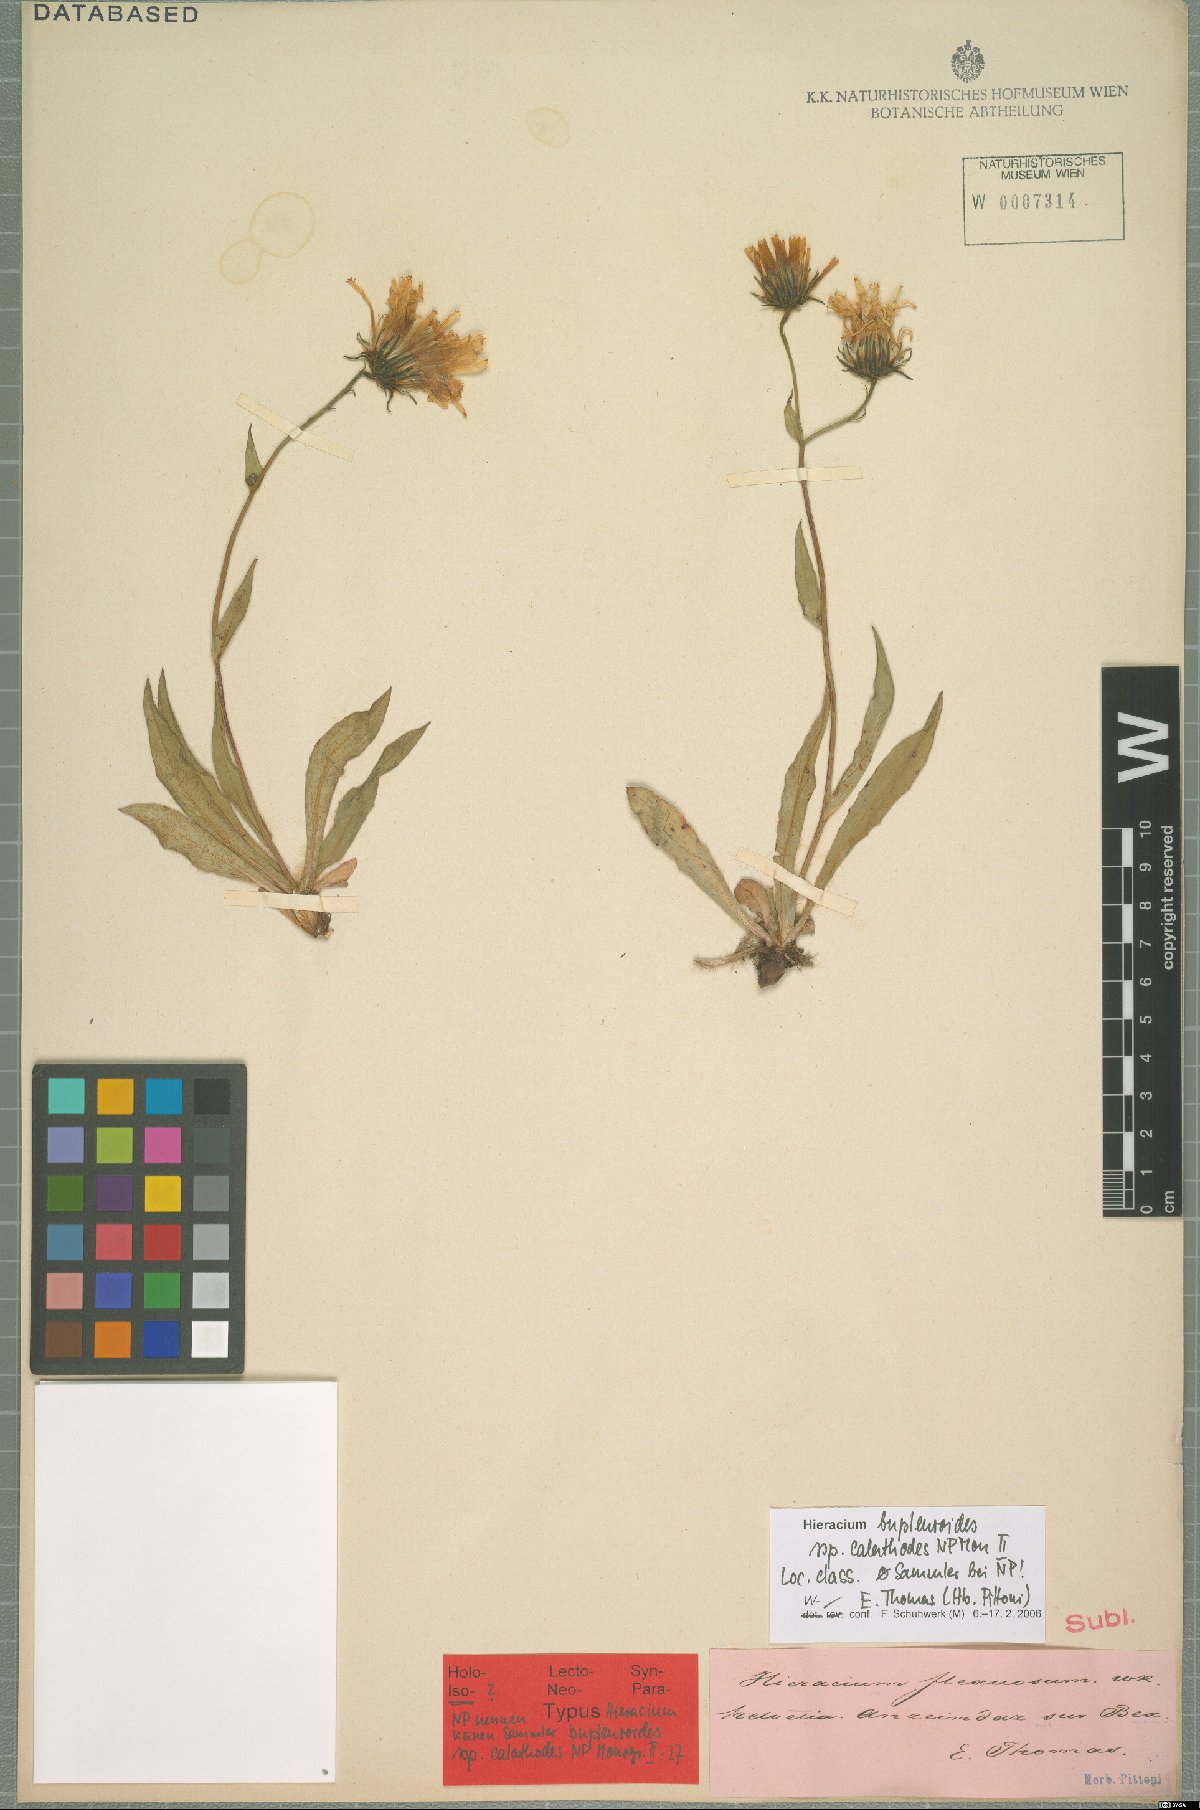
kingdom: Plantae
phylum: Tracheophyta
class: Magnoliopsida
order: Asterales
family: Asteraceae
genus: Hieracium
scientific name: Hieracium bupleuroides
